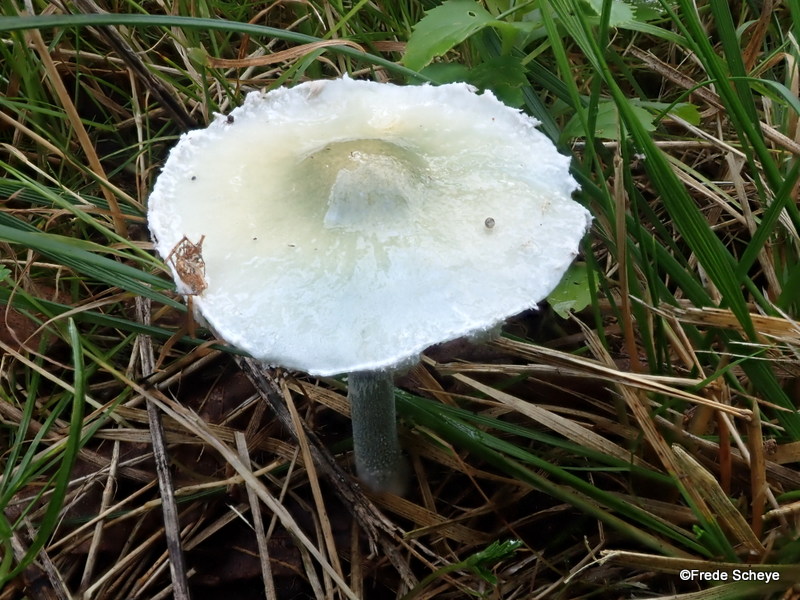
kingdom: Fungi
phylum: Basidiomycota
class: Agaricomycetes
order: Agaricales
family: Strophariaceae
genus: Stropharia
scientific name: Stropharia cyanea
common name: blågrøn bredblad
